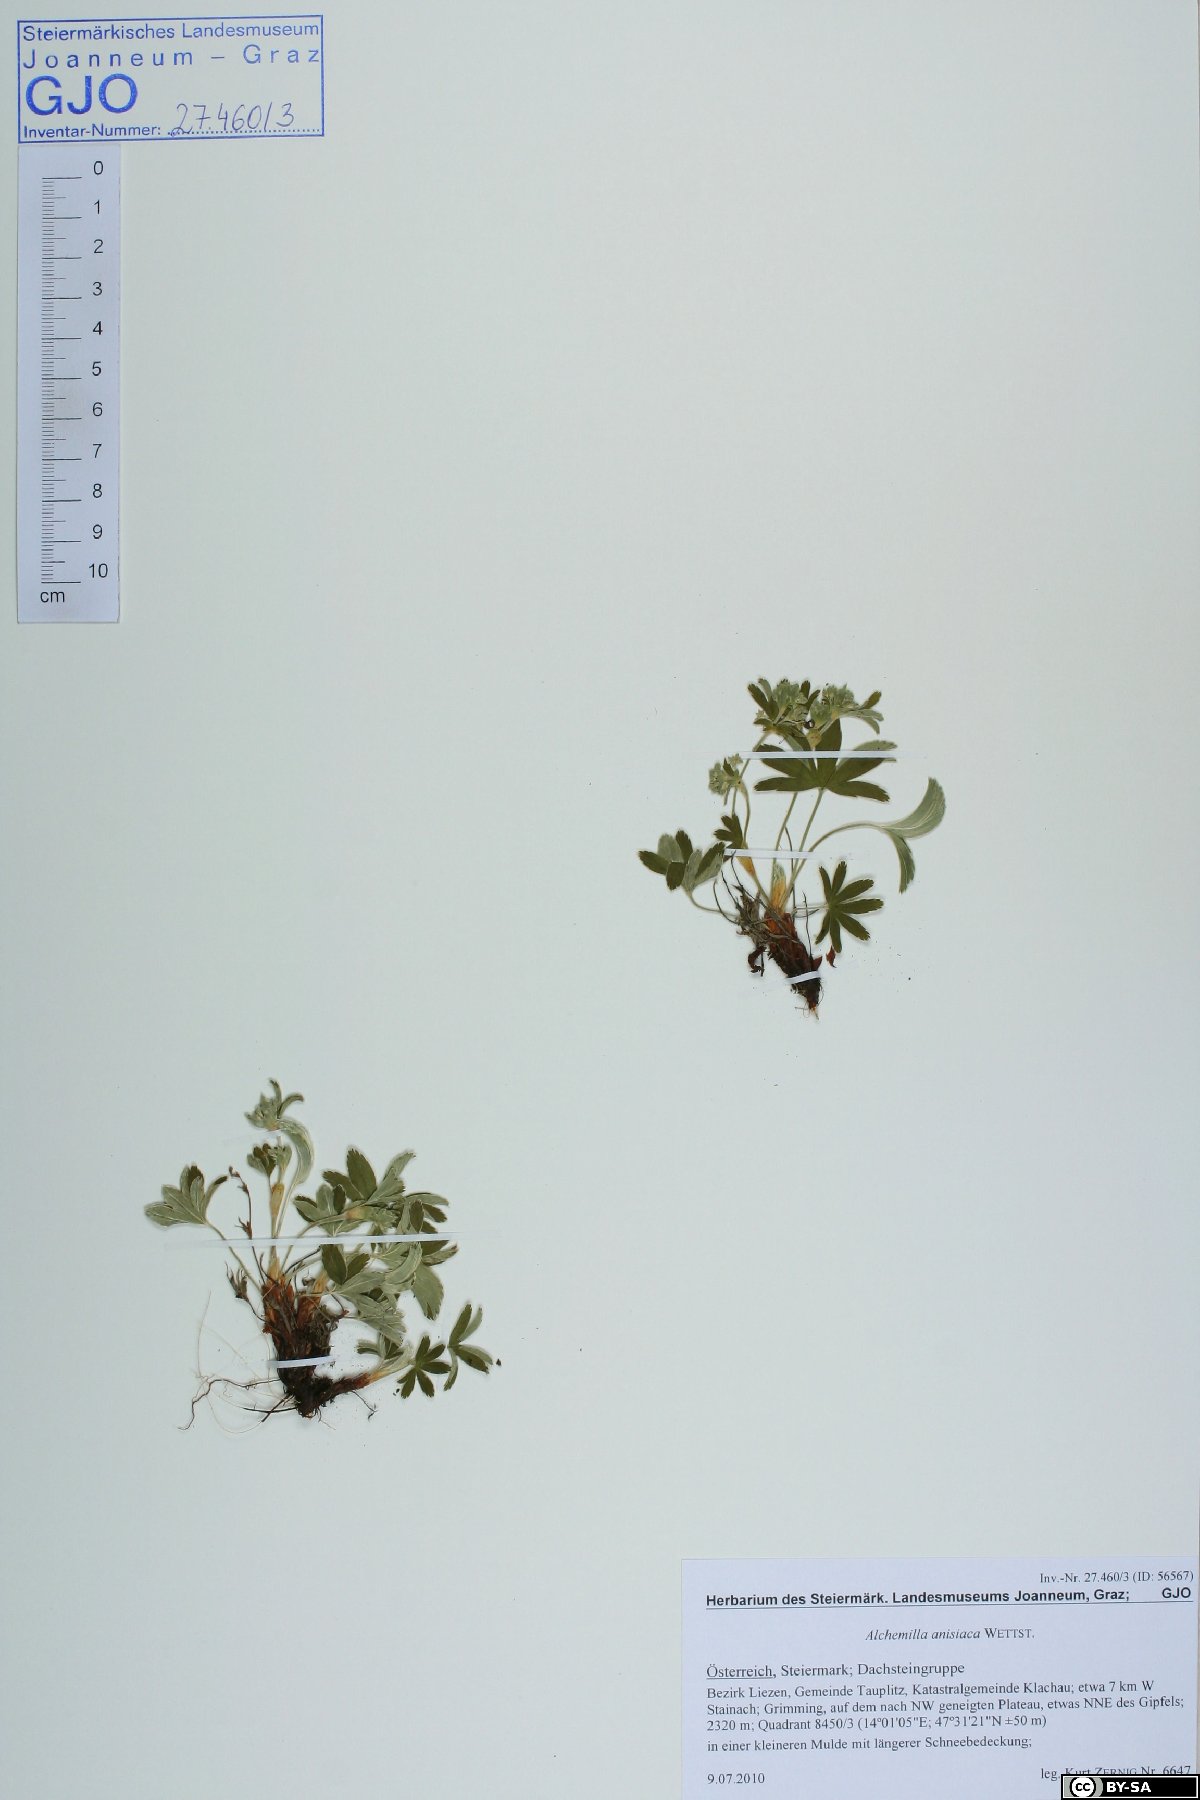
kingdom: Plantae
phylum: Tracheophyta
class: Magnoliopsida
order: Rosales
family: Rosaceae
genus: Alchemilla
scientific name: Alchemilla anisiaca
